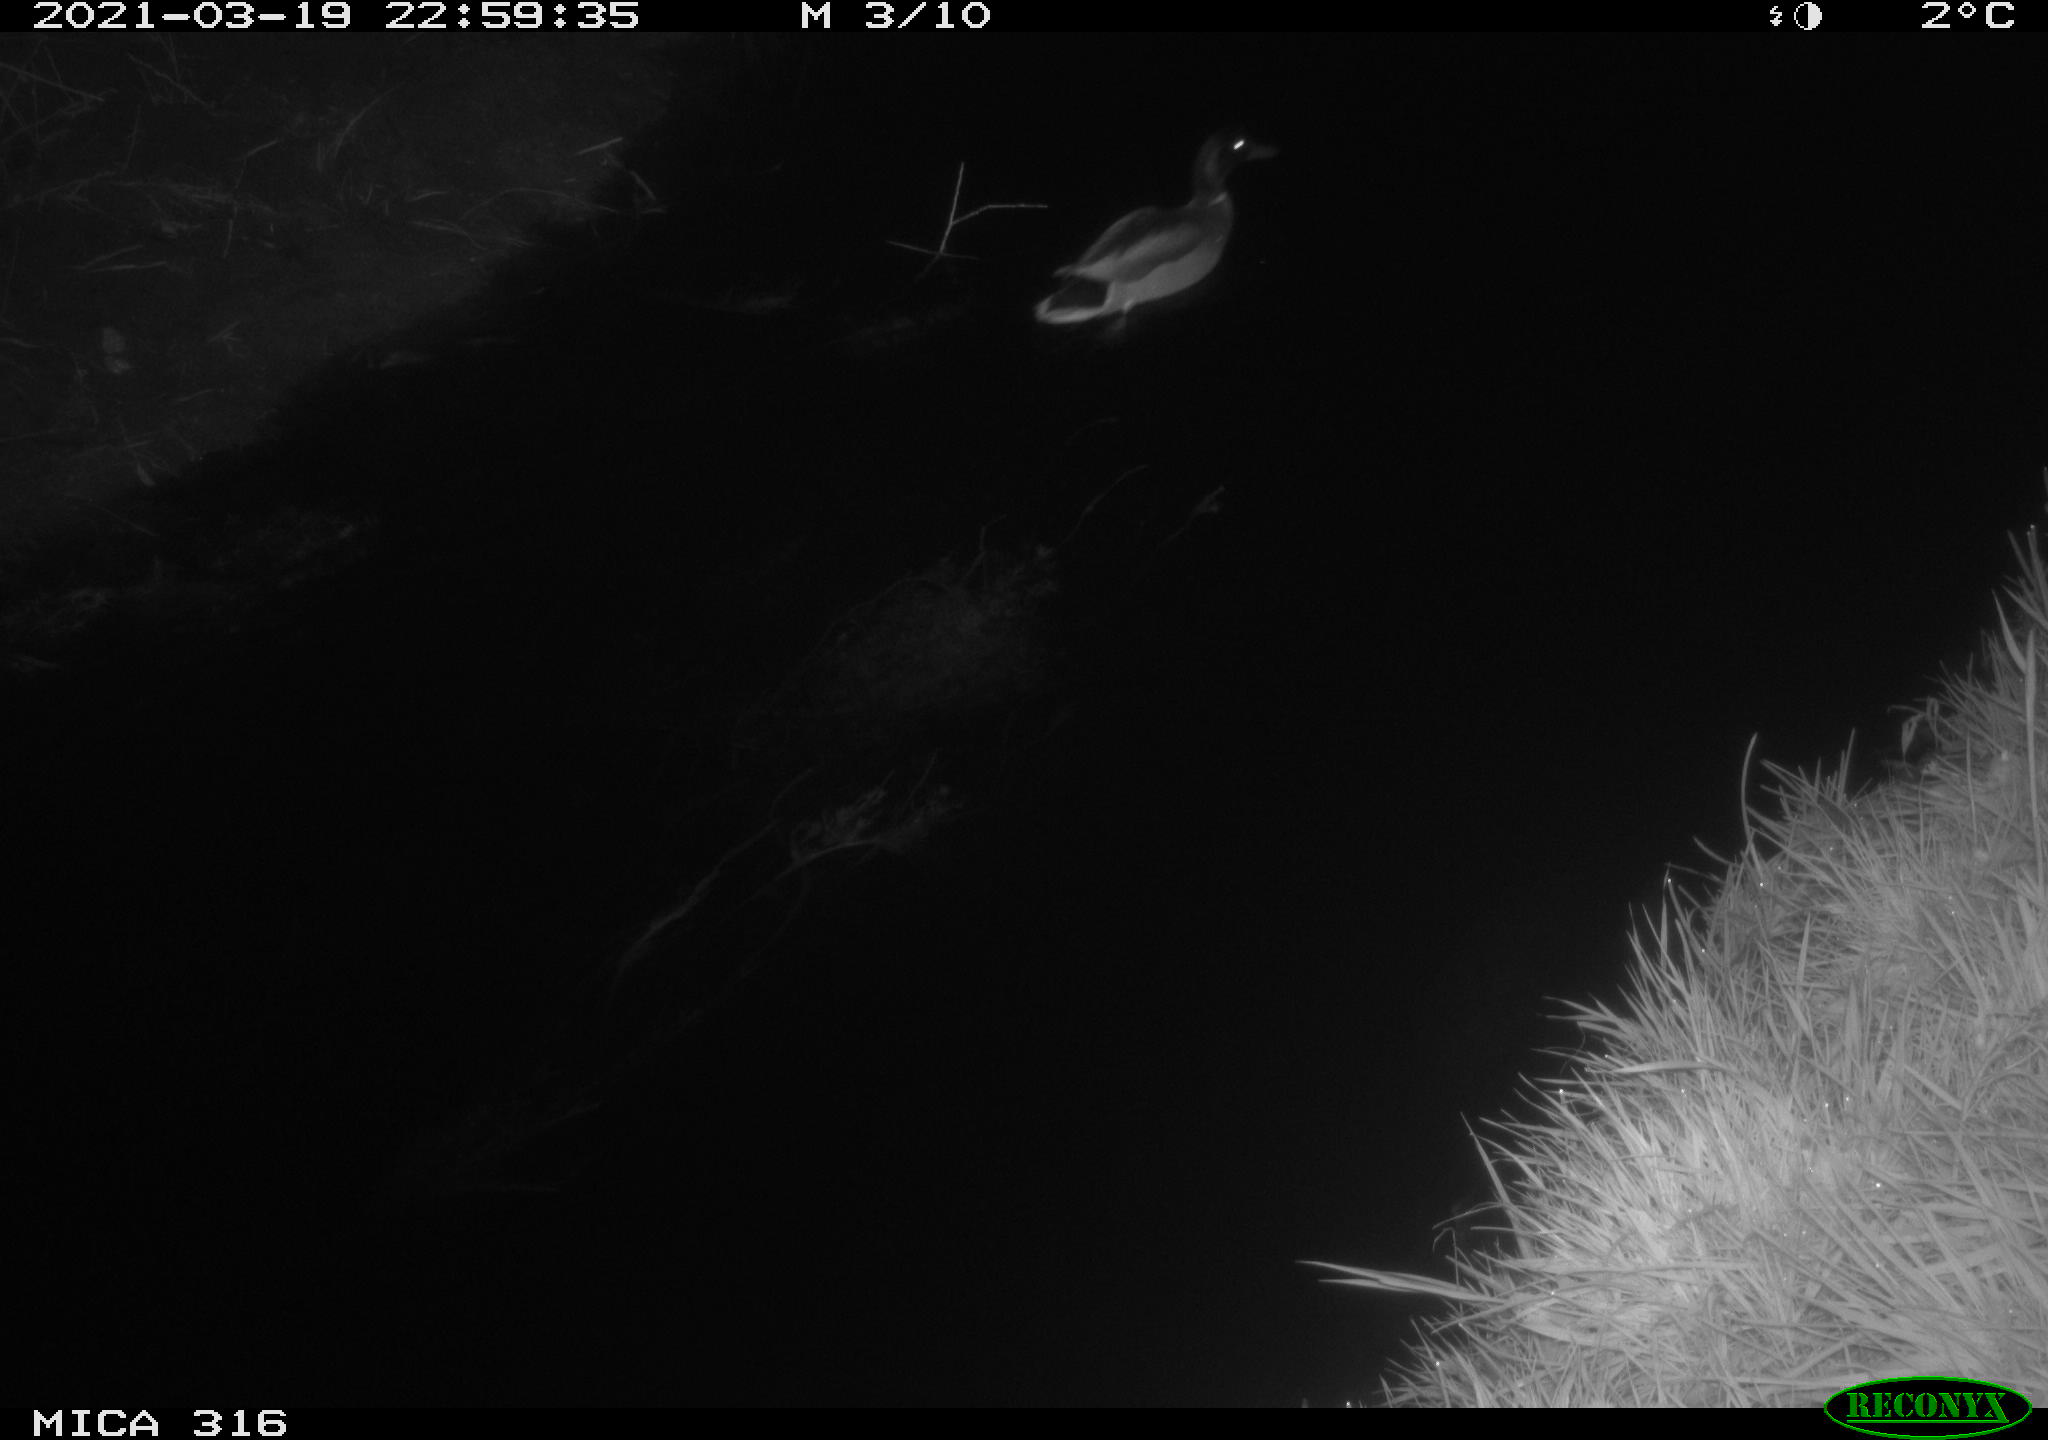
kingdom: Animalia
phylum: Chordata
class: Aves
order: Anseriformes
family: Anatidae
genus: Anas
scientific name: Anas platyrhynchos
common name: Mallard
